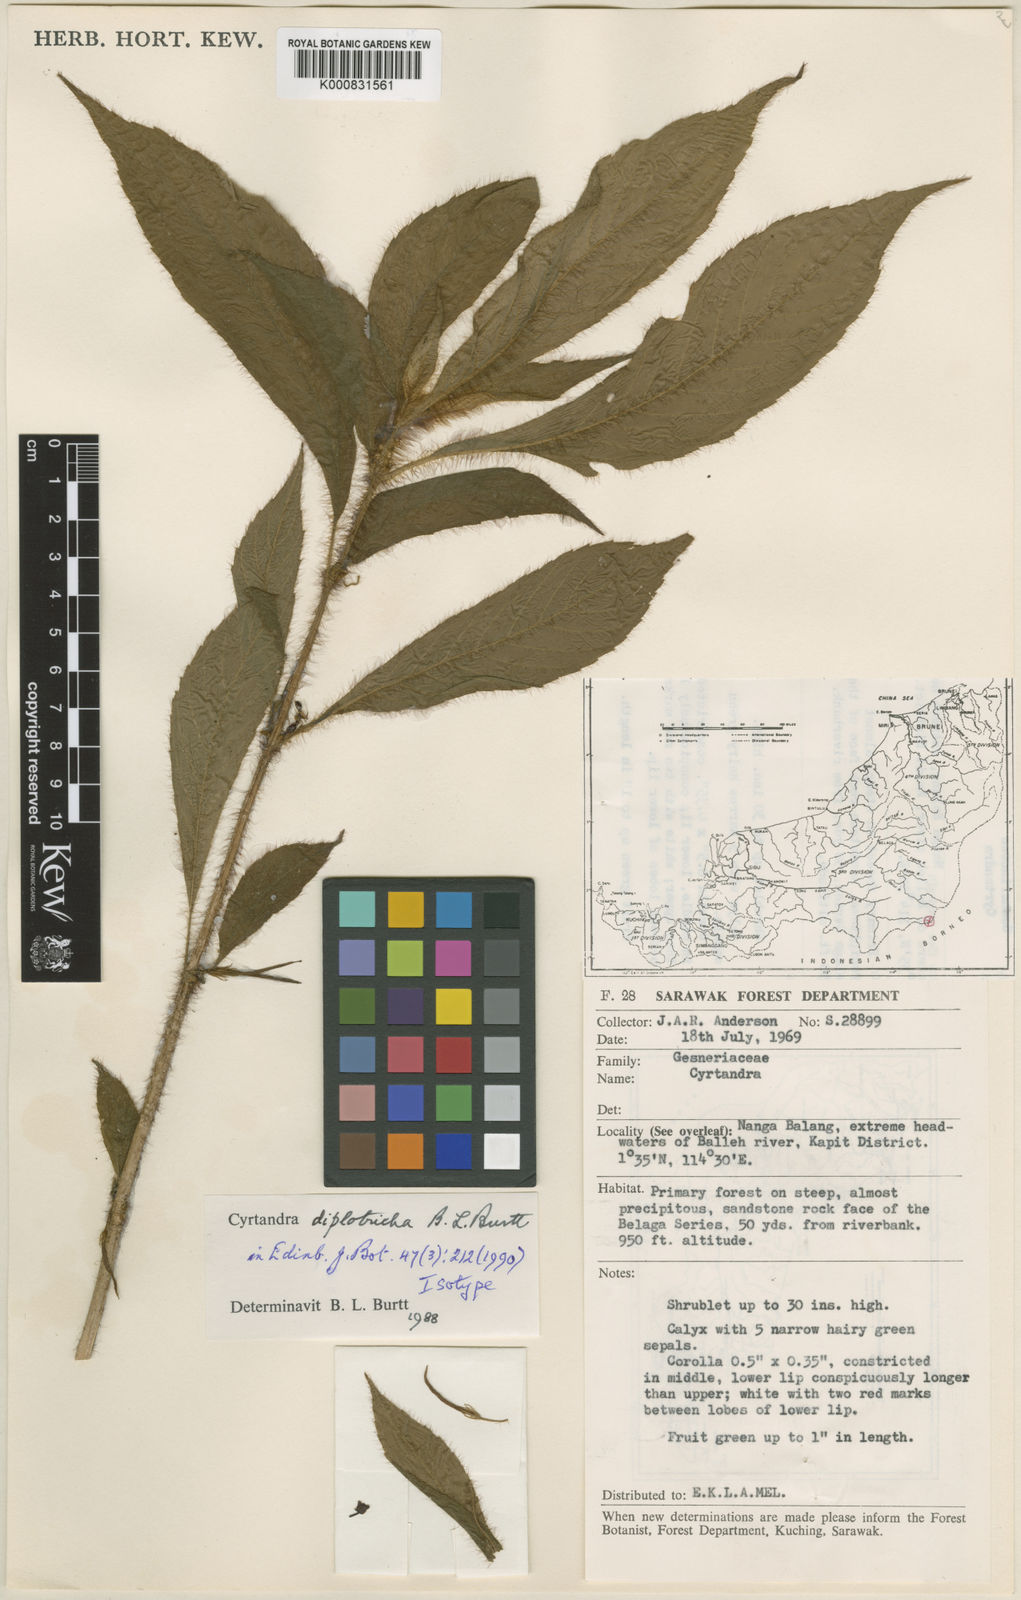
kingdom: Plantae
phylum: Tracheophyta
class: Magnoliopsida
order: Lamiales
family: Gesneriaceae
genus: Cyrtandra
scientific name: Cyrtandra diplotricha
